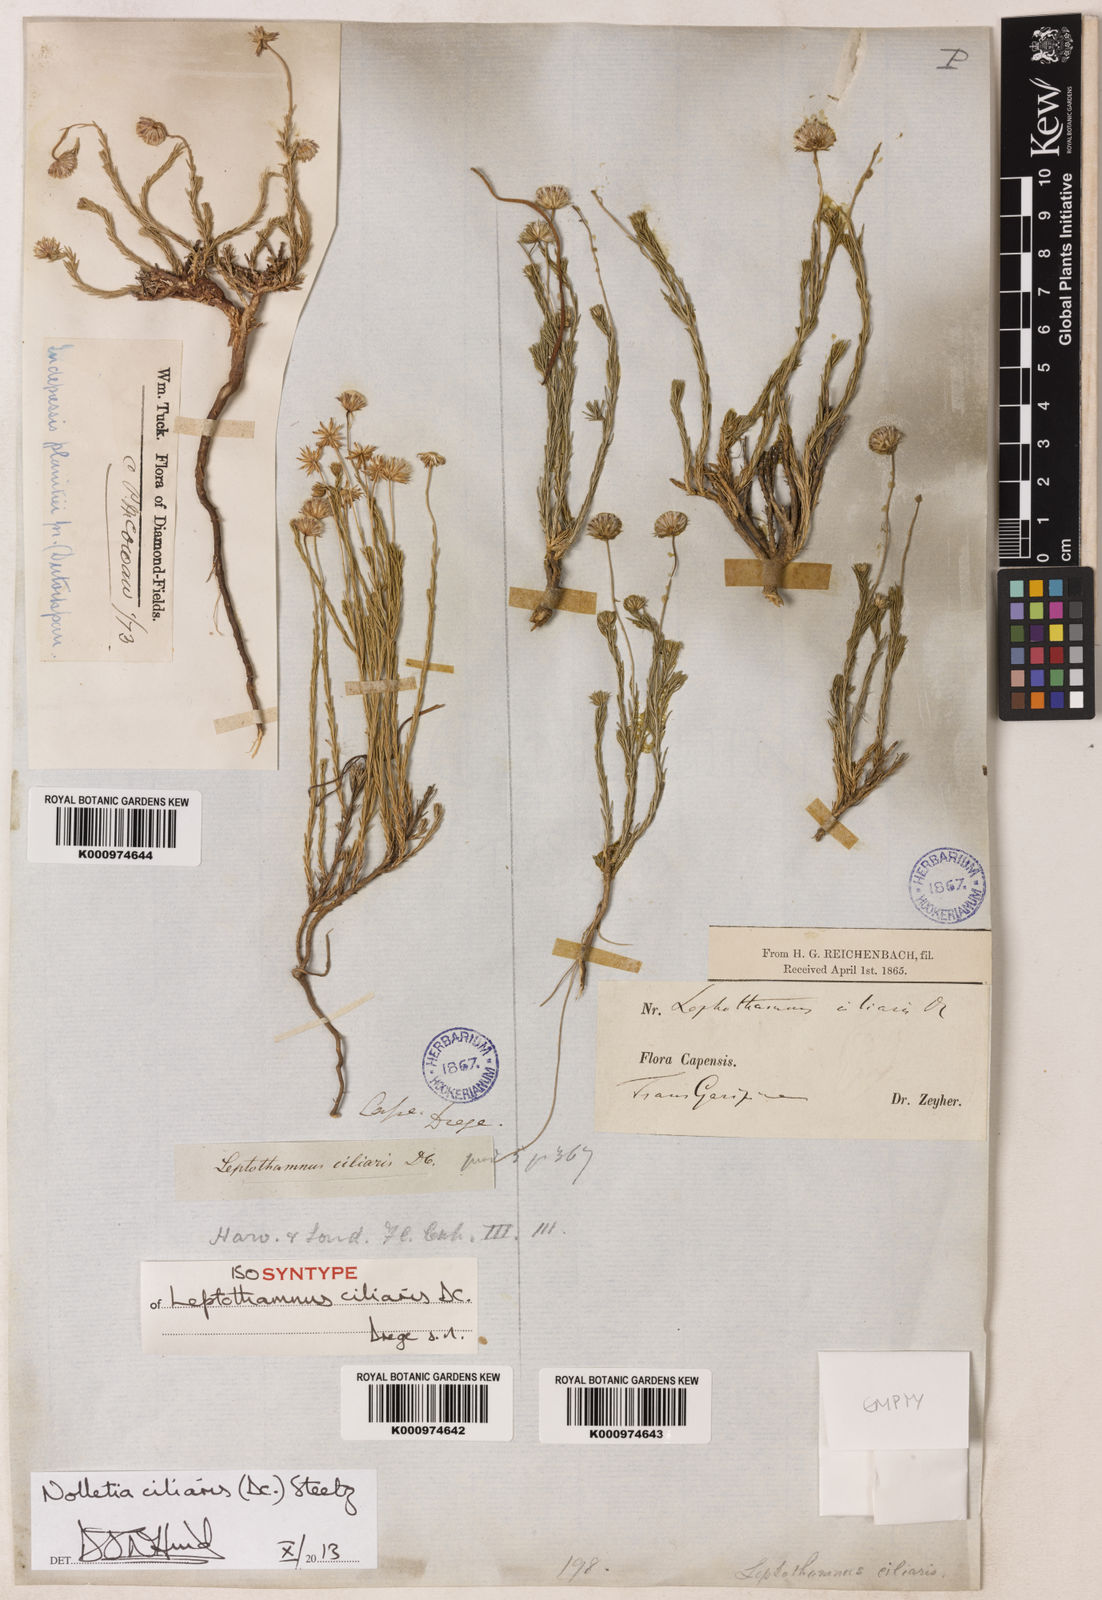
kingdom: Plantae
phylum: Tracheophyta
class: Magnoliopsida
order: Asterales
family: Asteraceae
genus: Nolletia
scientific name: Nolletia ciliaris
